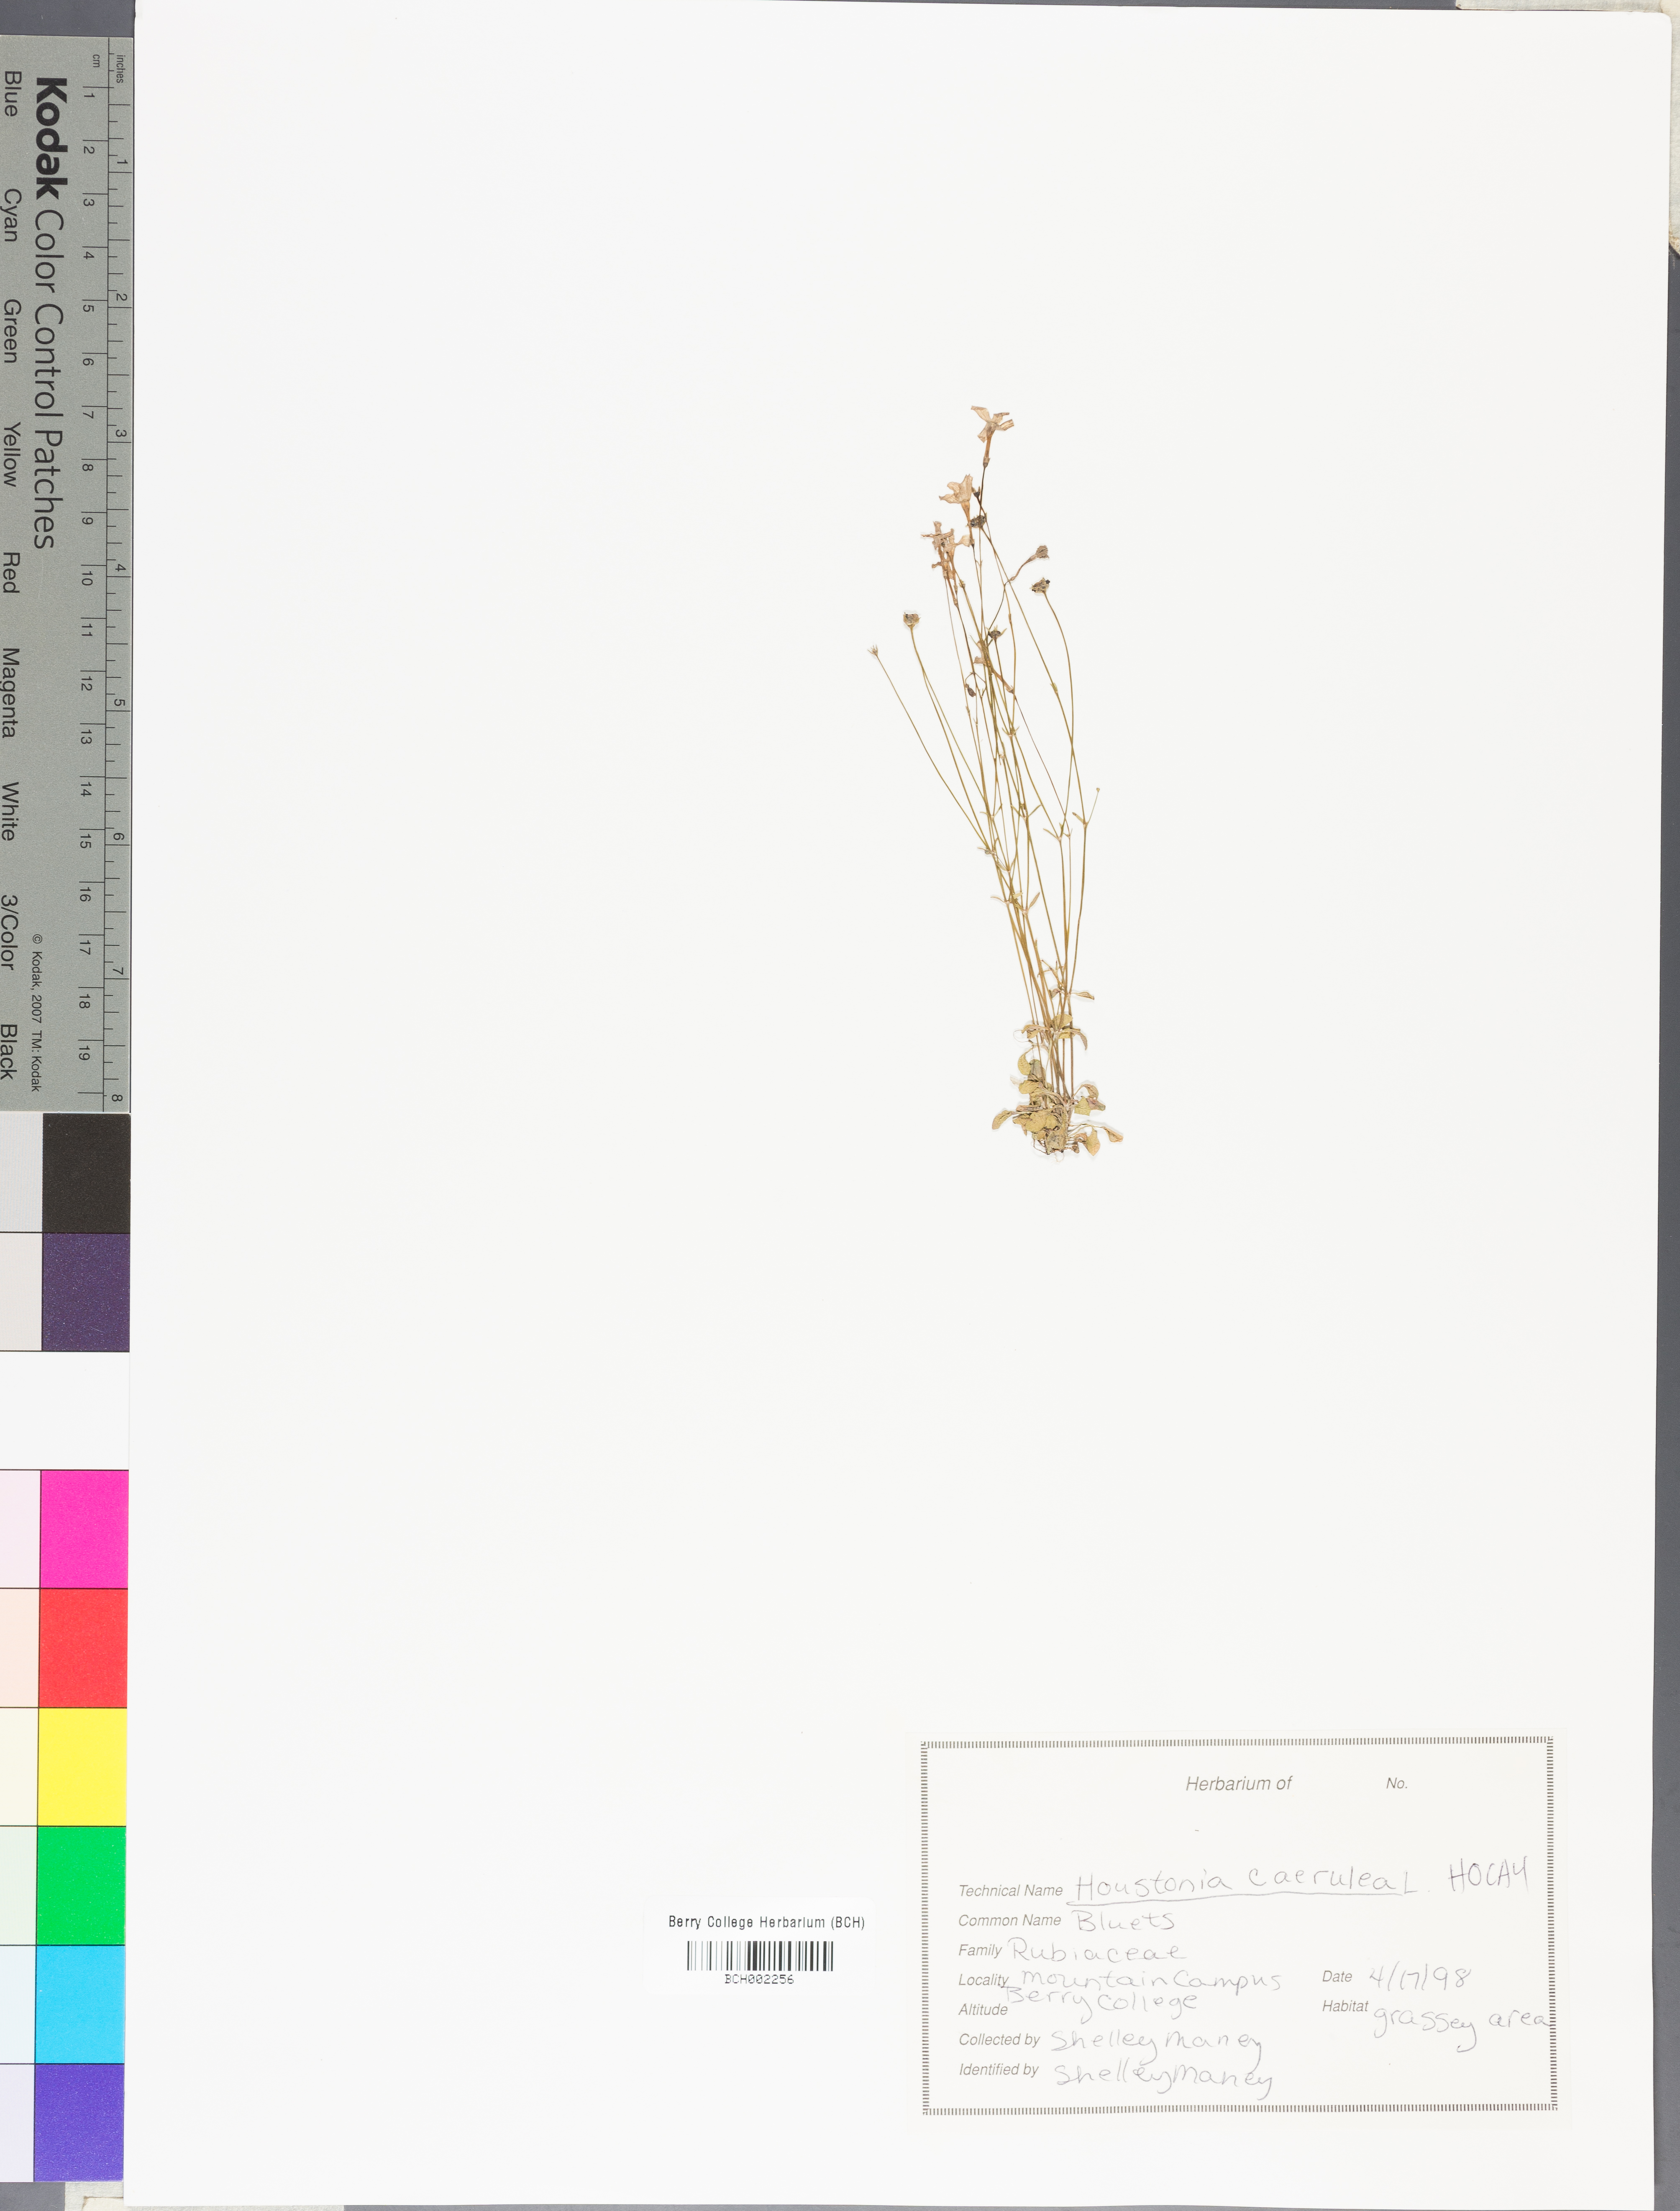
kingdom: Plantae
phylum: Tracheophyta
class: Magnoliopsida
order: Gentianales
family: Rubiaceae
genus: Houstonia
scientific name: Houstonia caerulea
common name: Bluets
